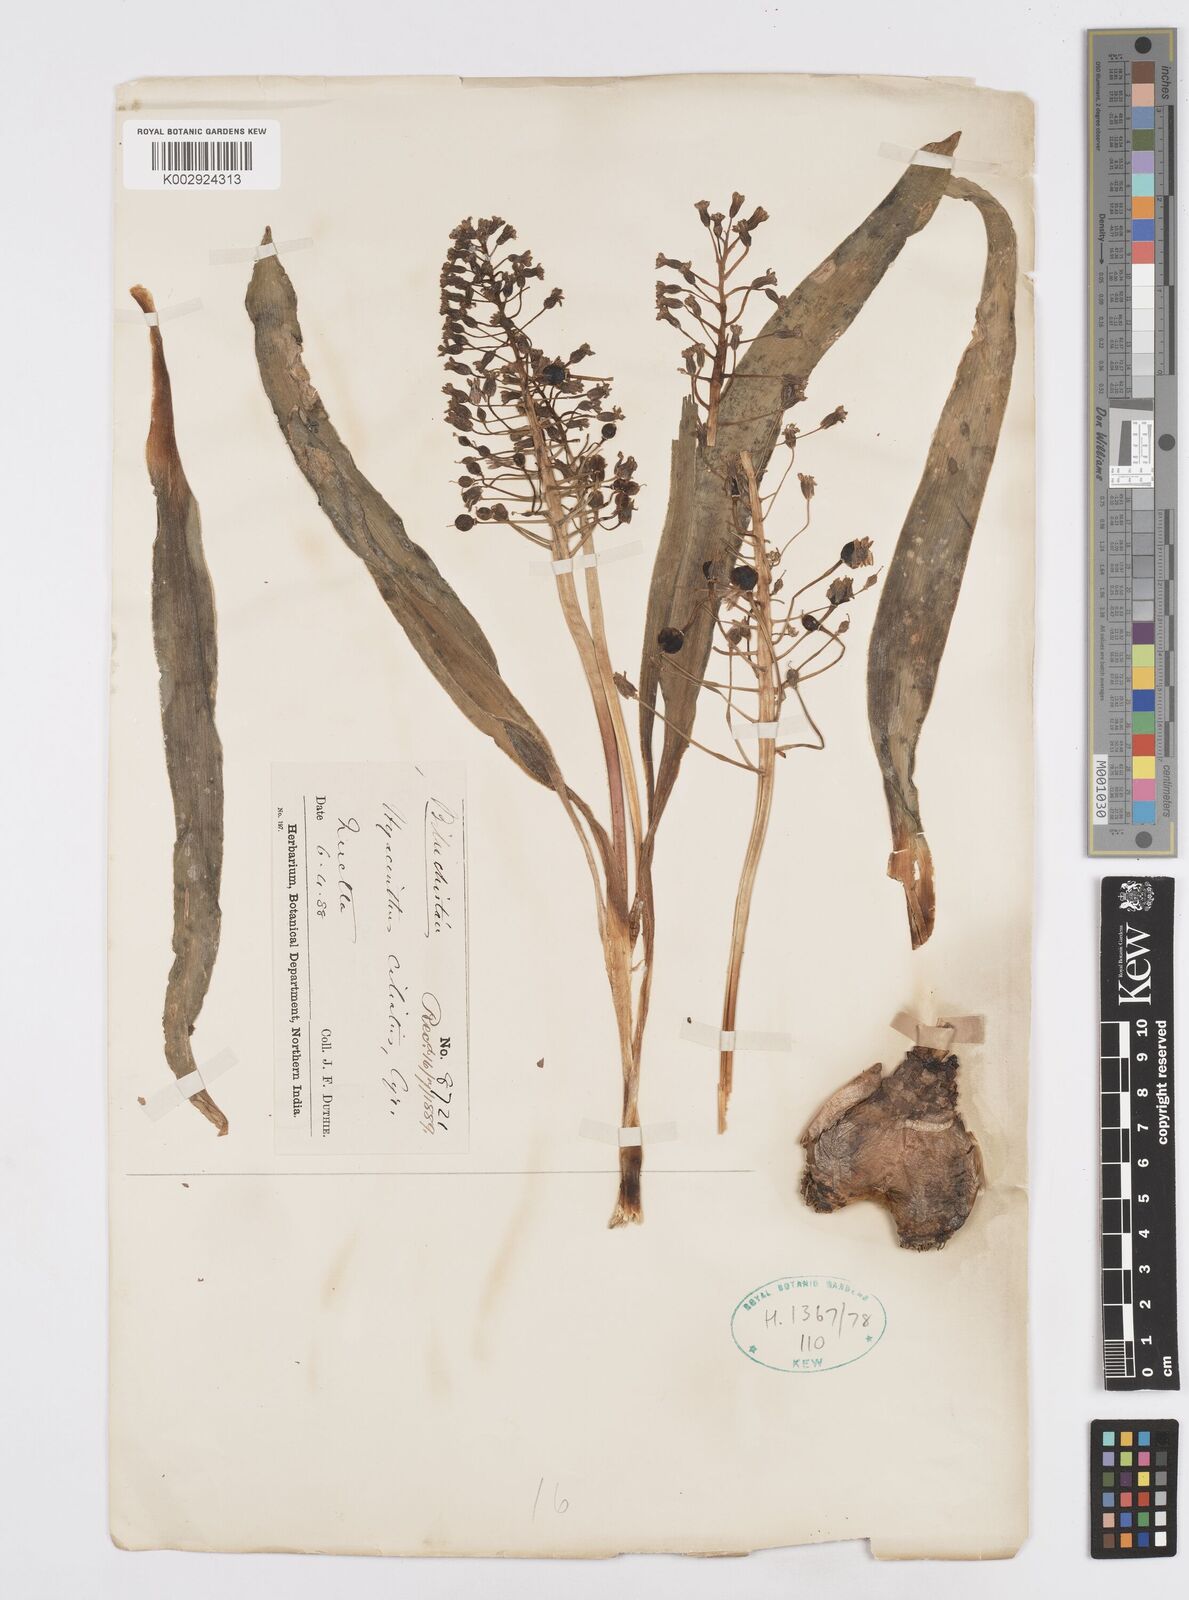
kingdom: Plantae
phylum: Tracheophyta
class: Liliopsida
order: Asparagales
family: Asparagaceae
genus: Bellevalia
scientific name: Bellevalia ciliata
